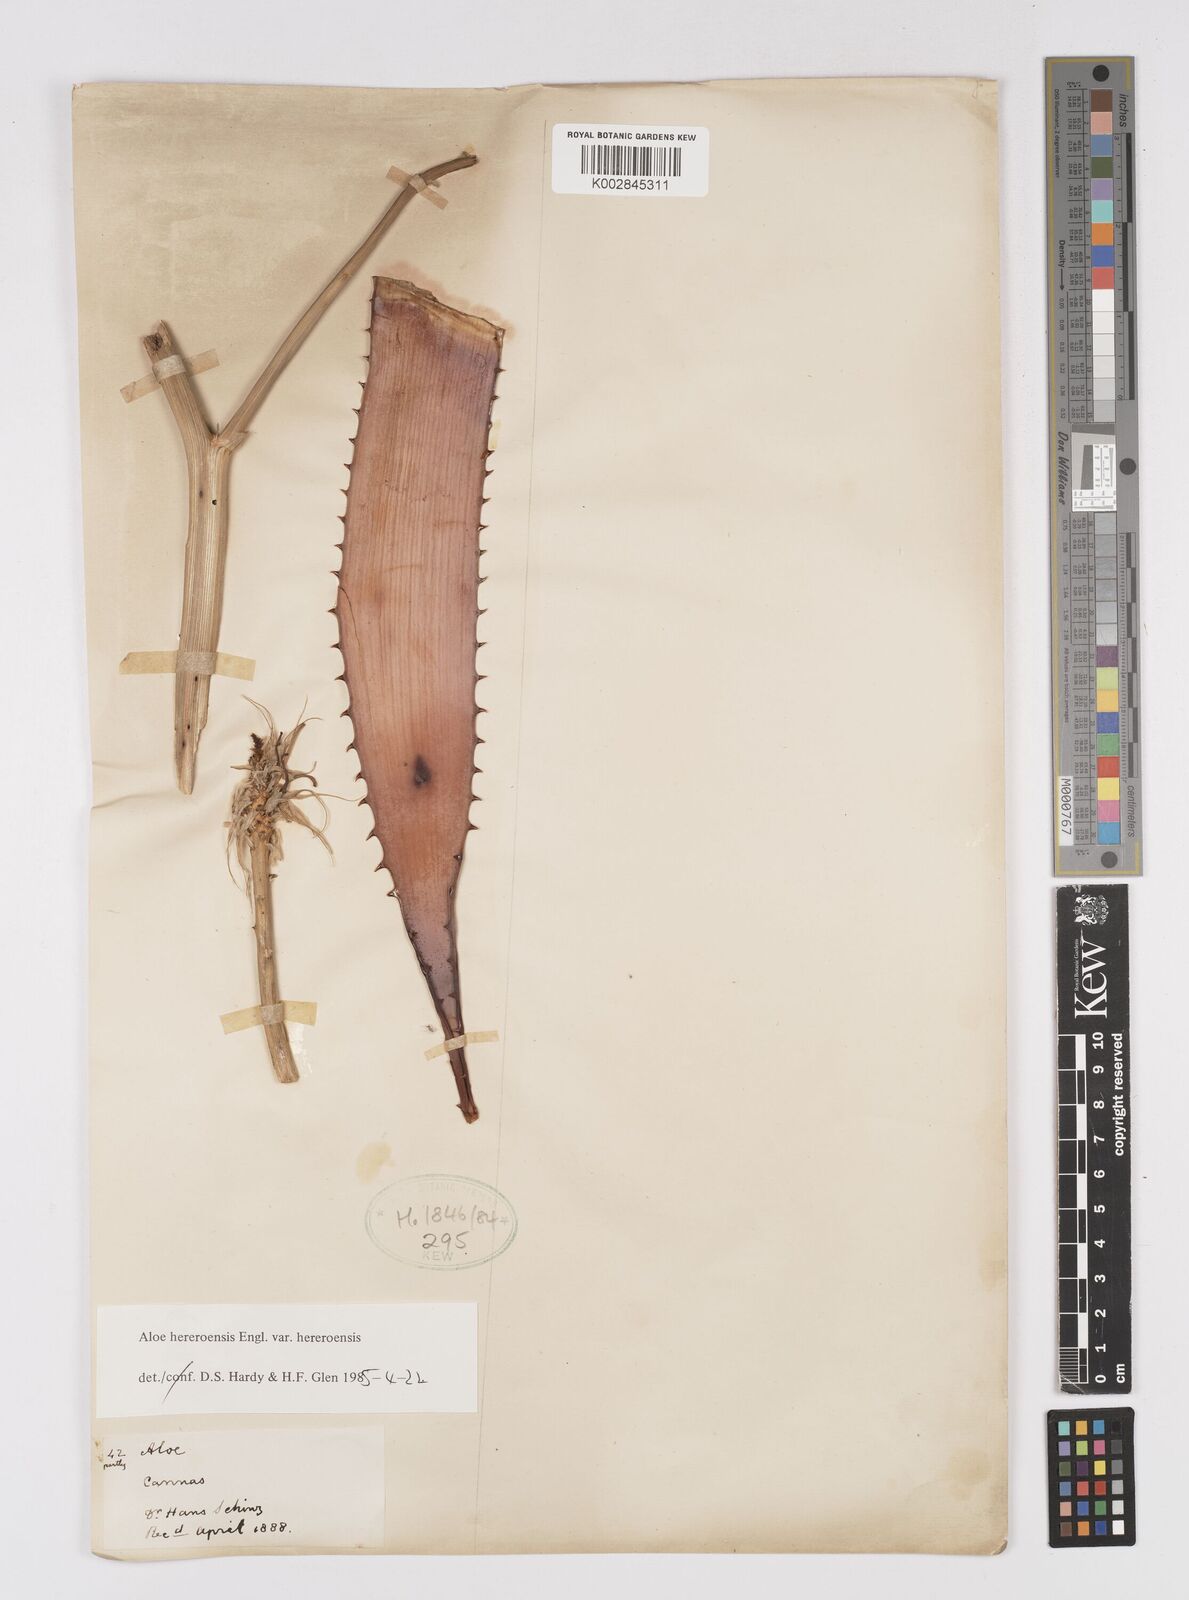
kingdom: Plantae
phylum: Tracheophyta
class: Liliopsida
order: Asparagales
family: Asphodelaceae
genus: Aloe
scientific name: Aloe hereroensis
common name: Herero aloe
